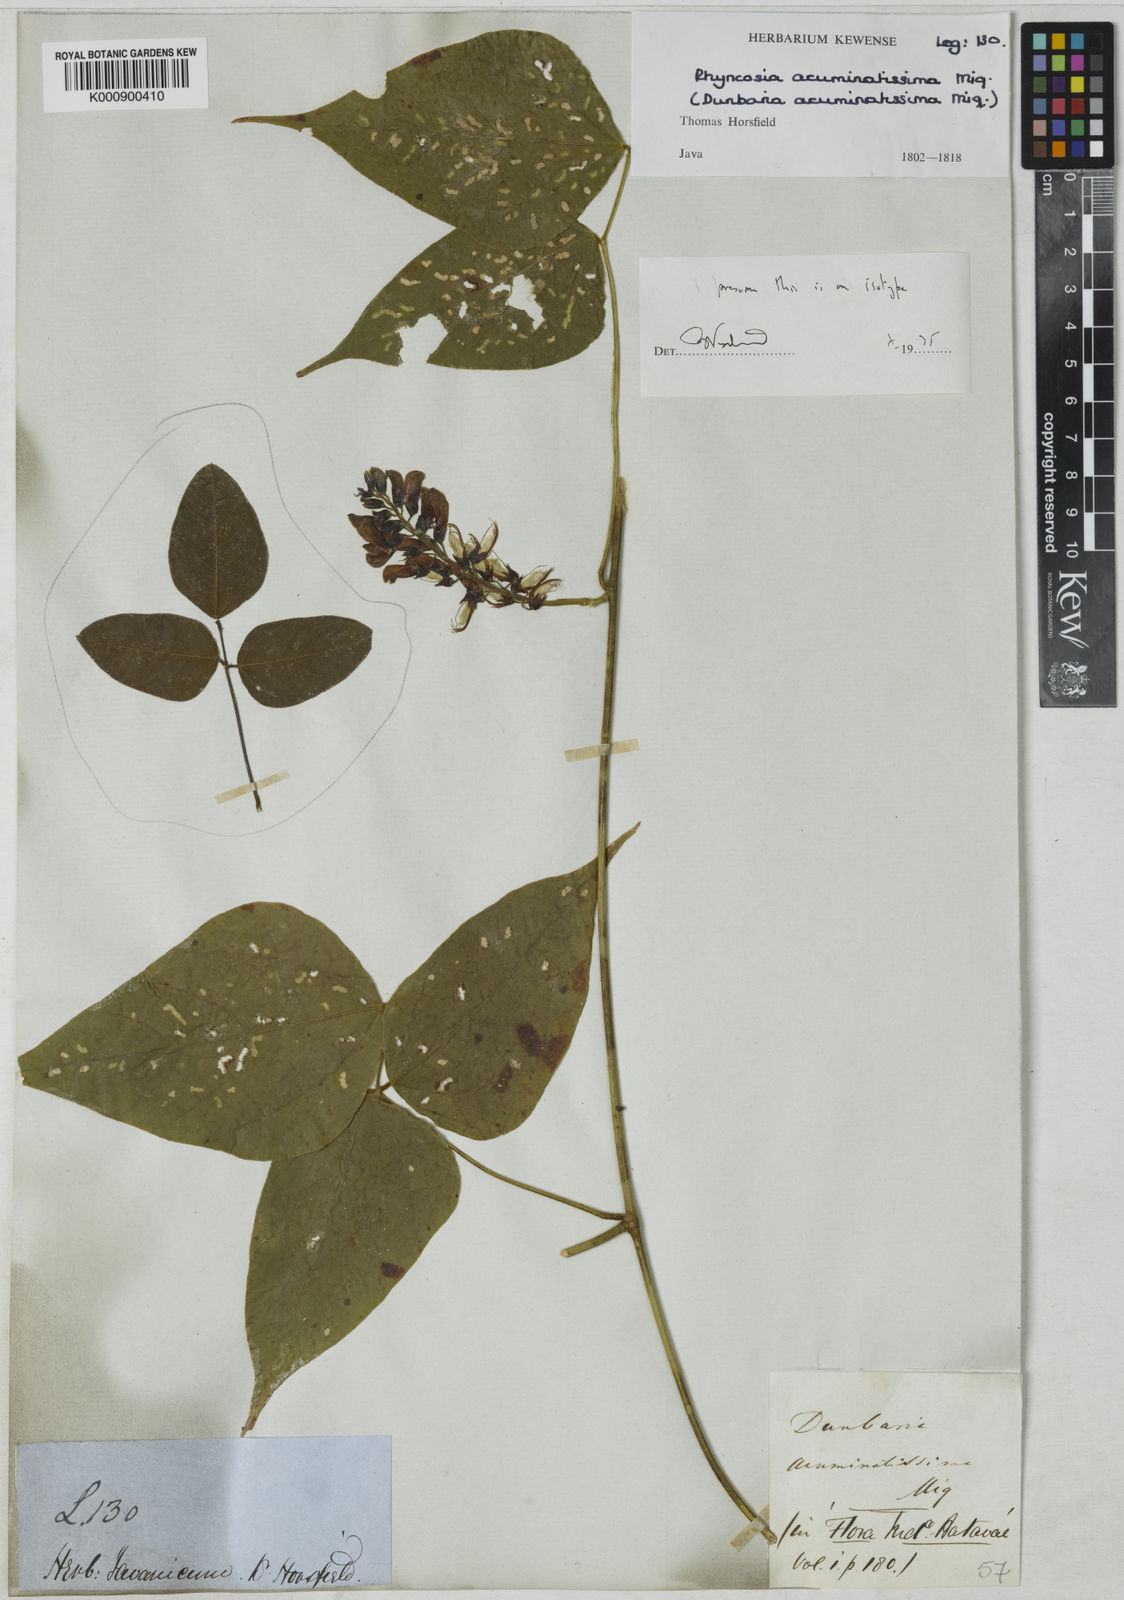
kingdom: Plantae
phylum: Tracheophyta
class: Magnoliopsida
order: Fabales
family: Fabaceae
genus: Rhynchosia
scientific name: Rhynchosia acuminatissima
